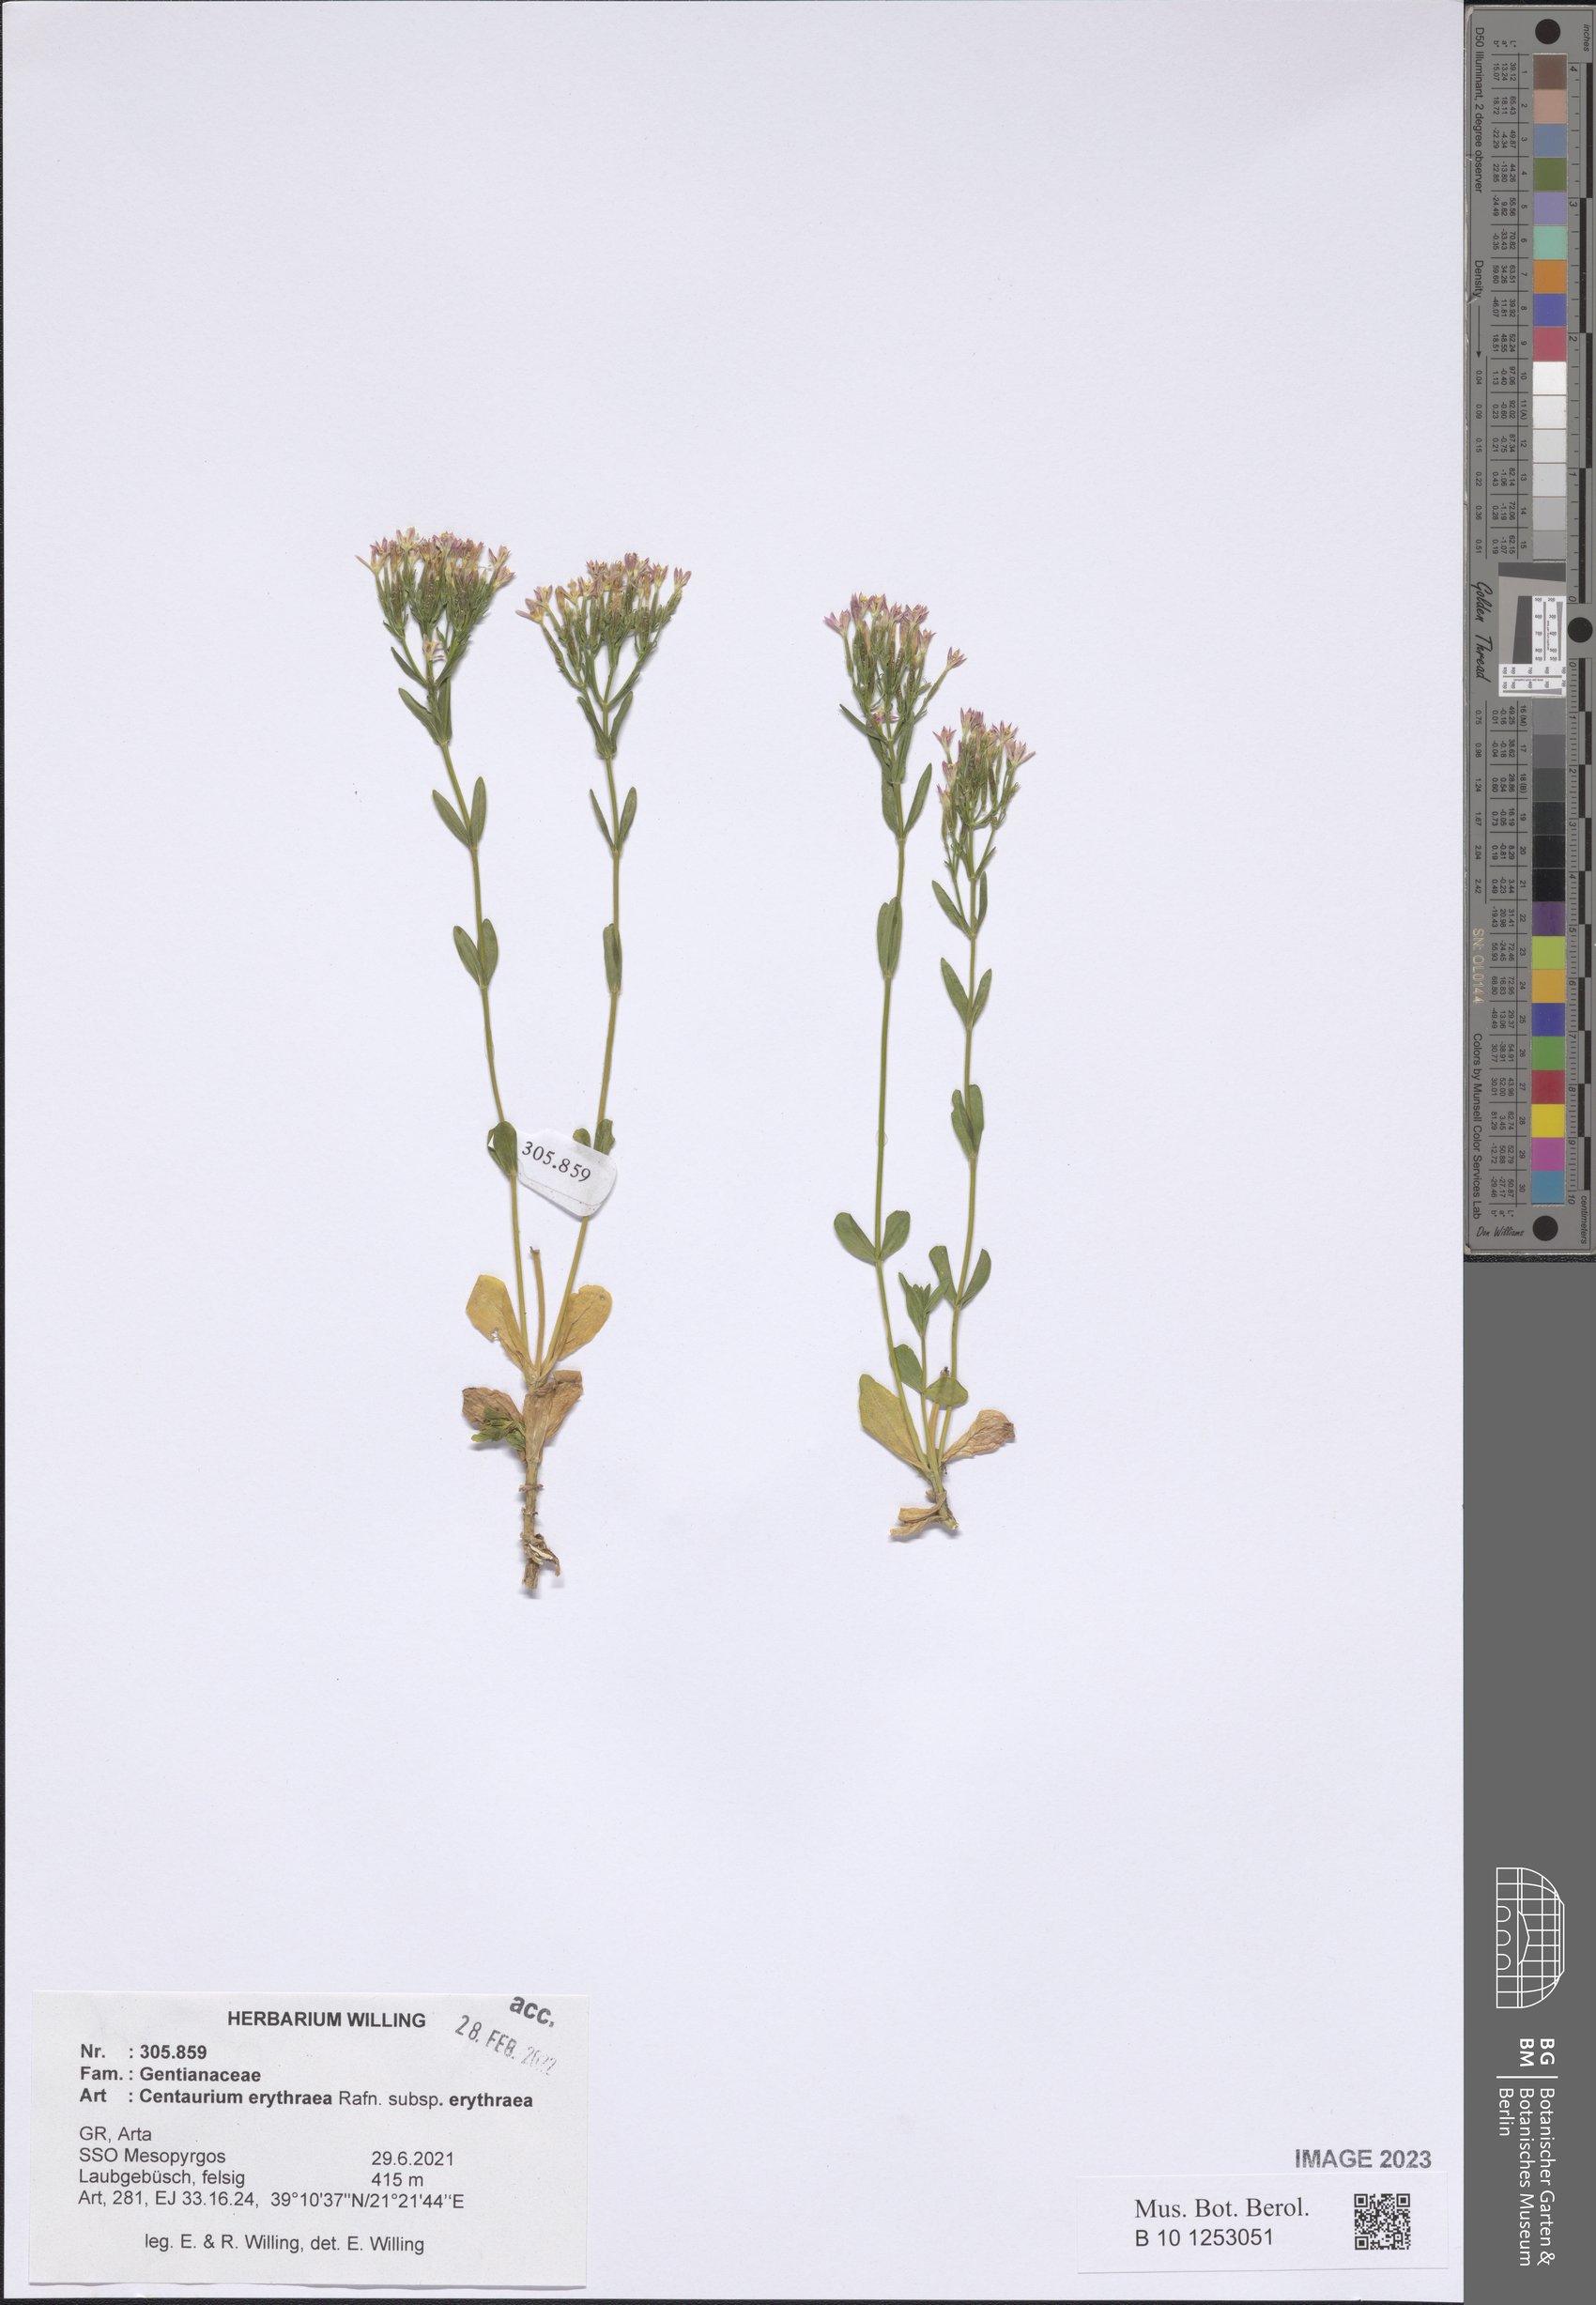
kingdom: Plantae
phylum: Tracheophyta
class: Magnoliopsida
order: Gentianales
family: Gentianaceae
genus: Centaurium
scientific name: Centaurium erythraea
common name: Common centaury
